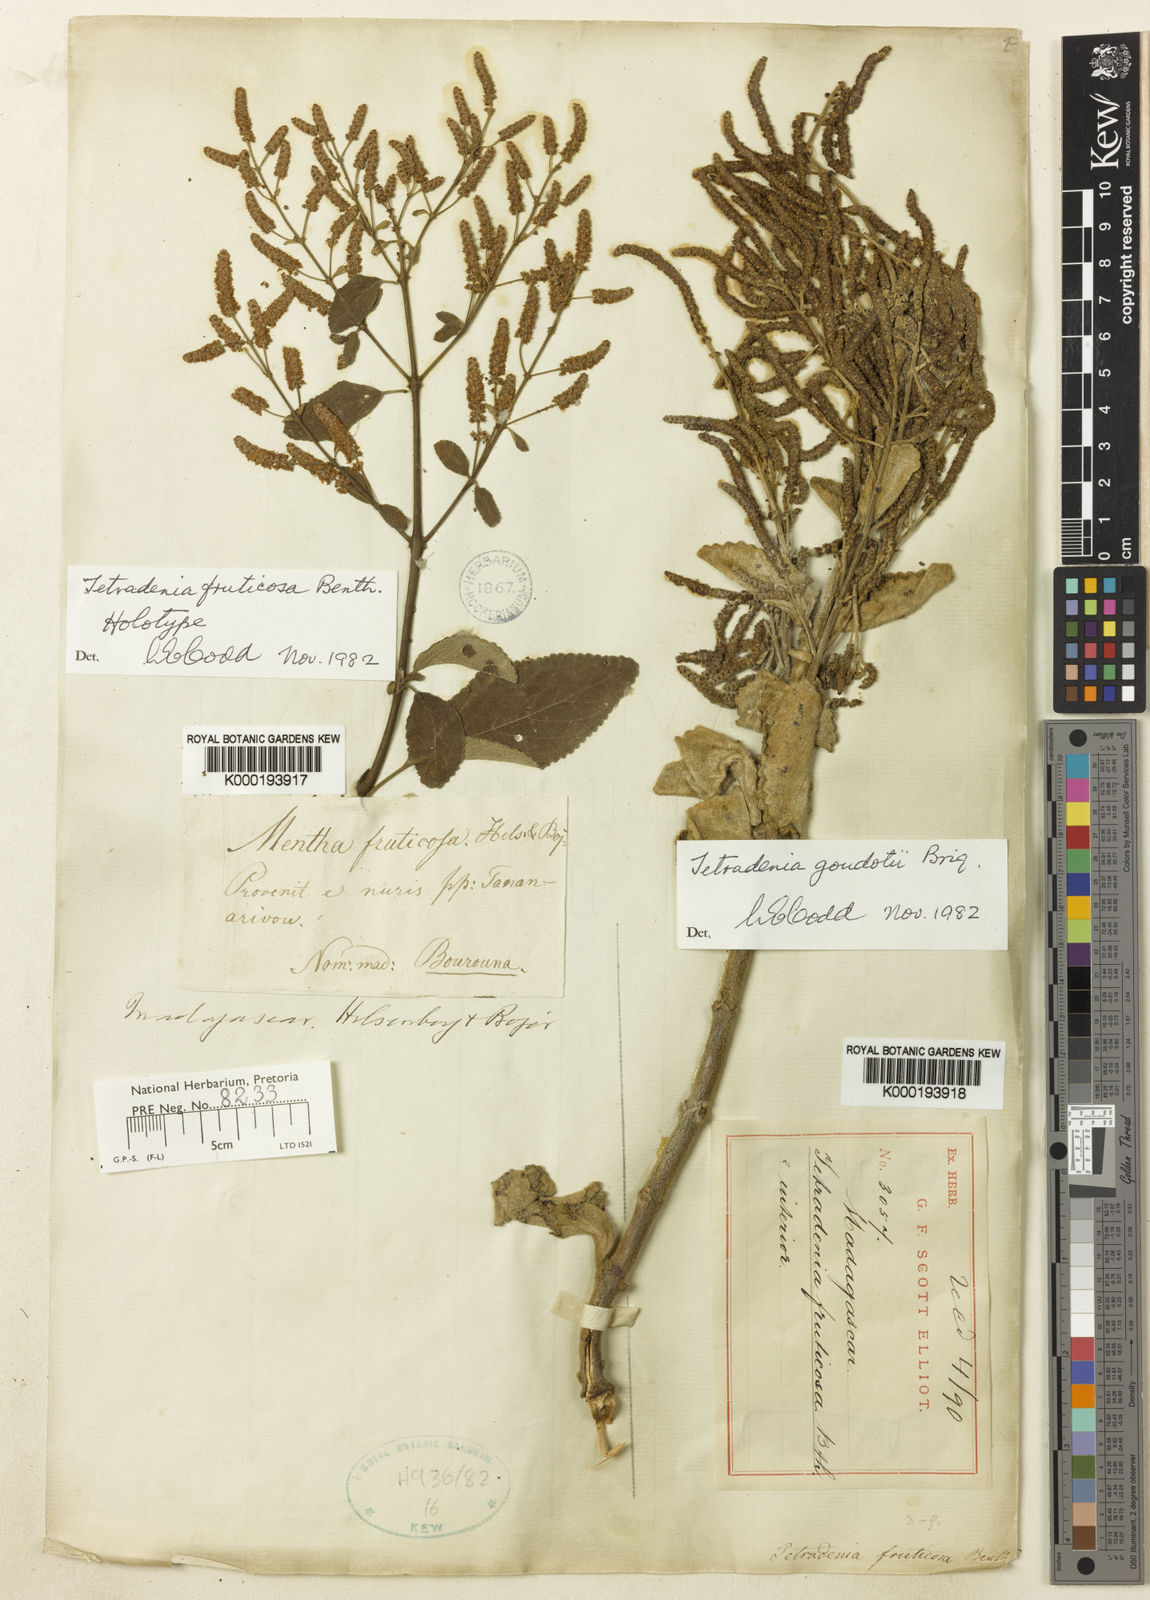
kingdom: Plantae
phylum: Tracheophyta
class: Magnoliopsida
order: Lamiales
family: Lamiaceae
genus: Tetradenia
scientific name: Tetradenia fruticosa
